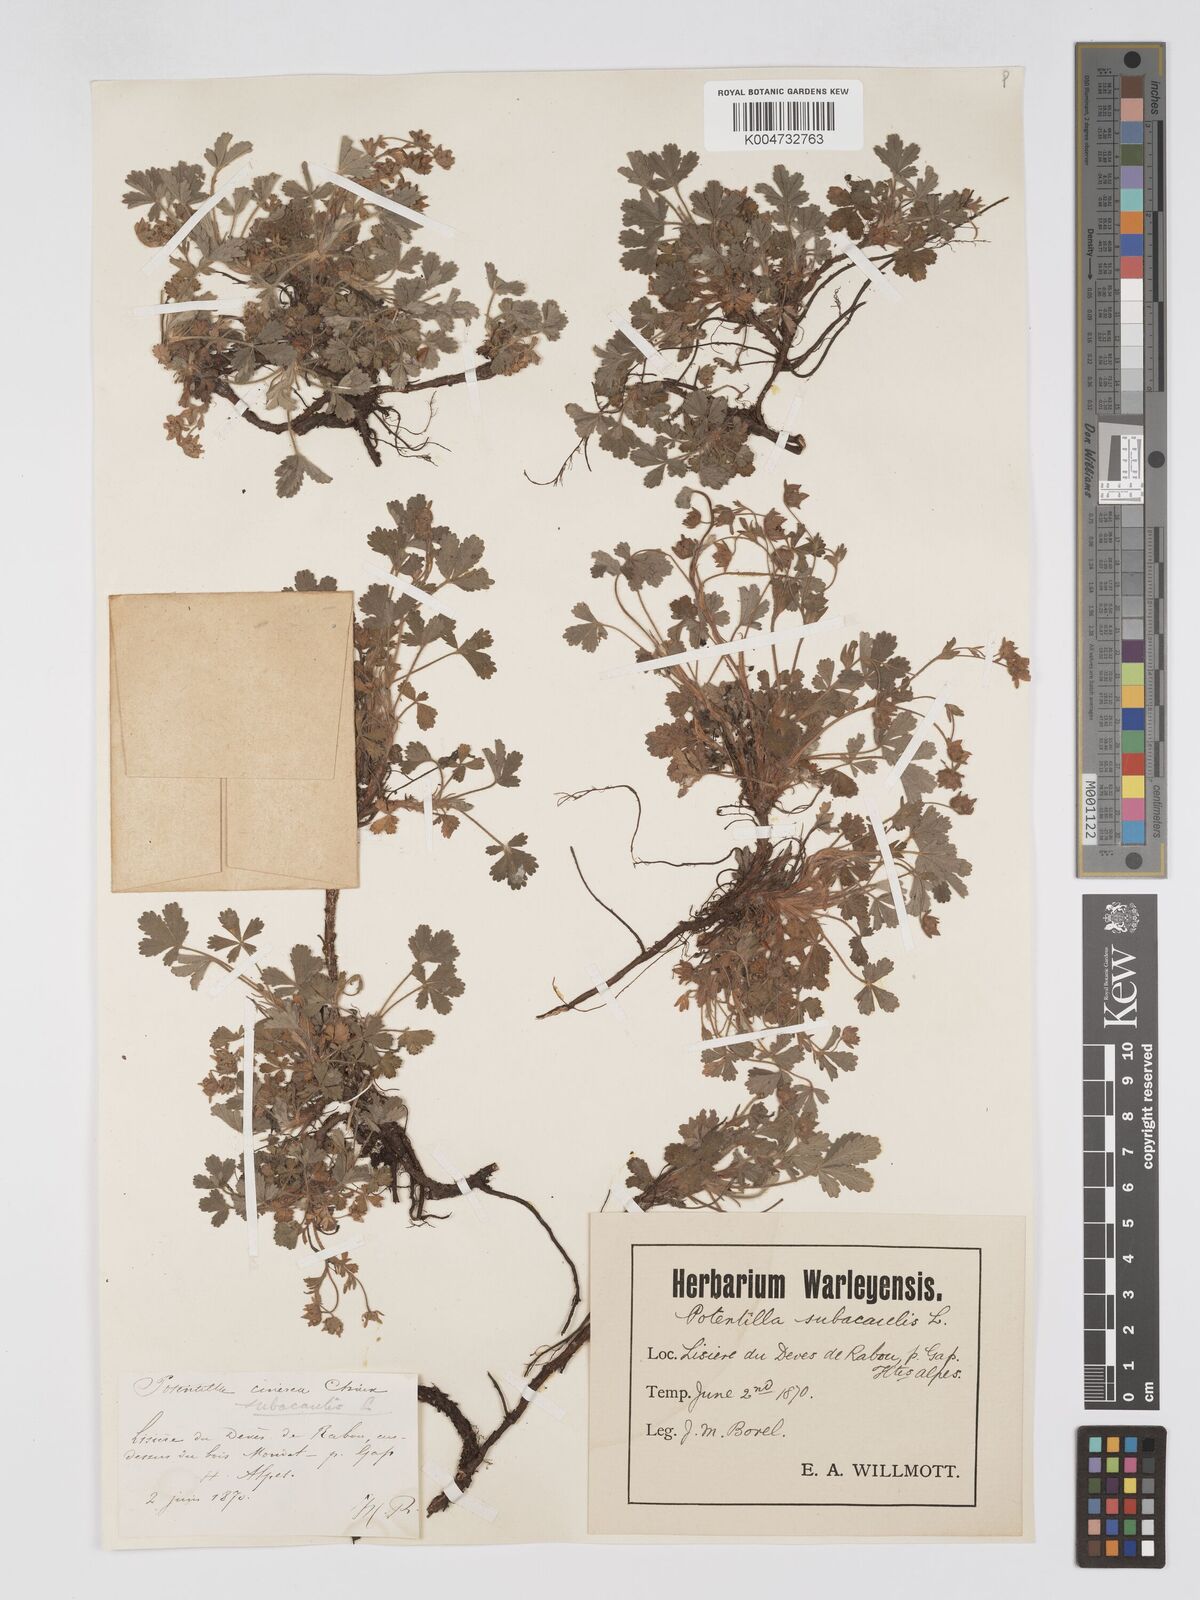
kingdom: Plantae
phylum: Tracheophyta
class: Magnoliopsida
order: Rosales
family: Rosaceae
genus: Potentilla
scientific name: Potentilla
